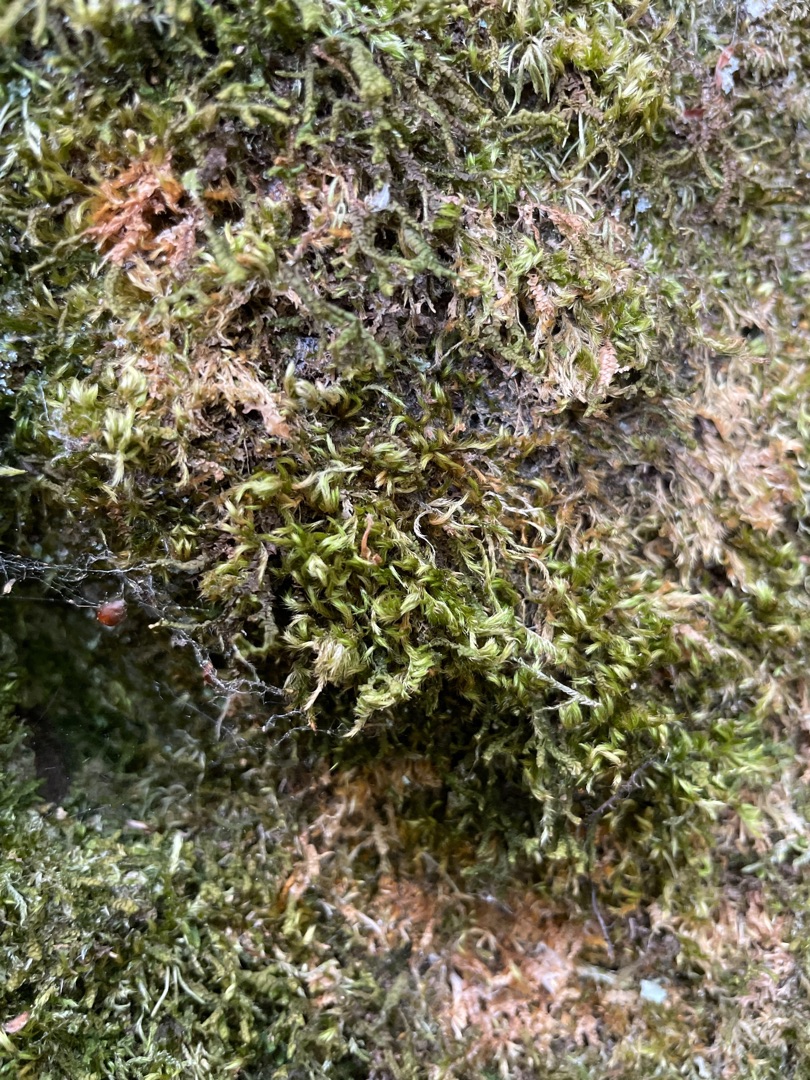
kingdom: Plantae
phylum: Bryophyta
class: Bryopsida
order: Hypnales
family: Brachytheciaceae
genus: Homalothecium
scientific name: Homalothecium sericeum
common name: Krybende silkemos
